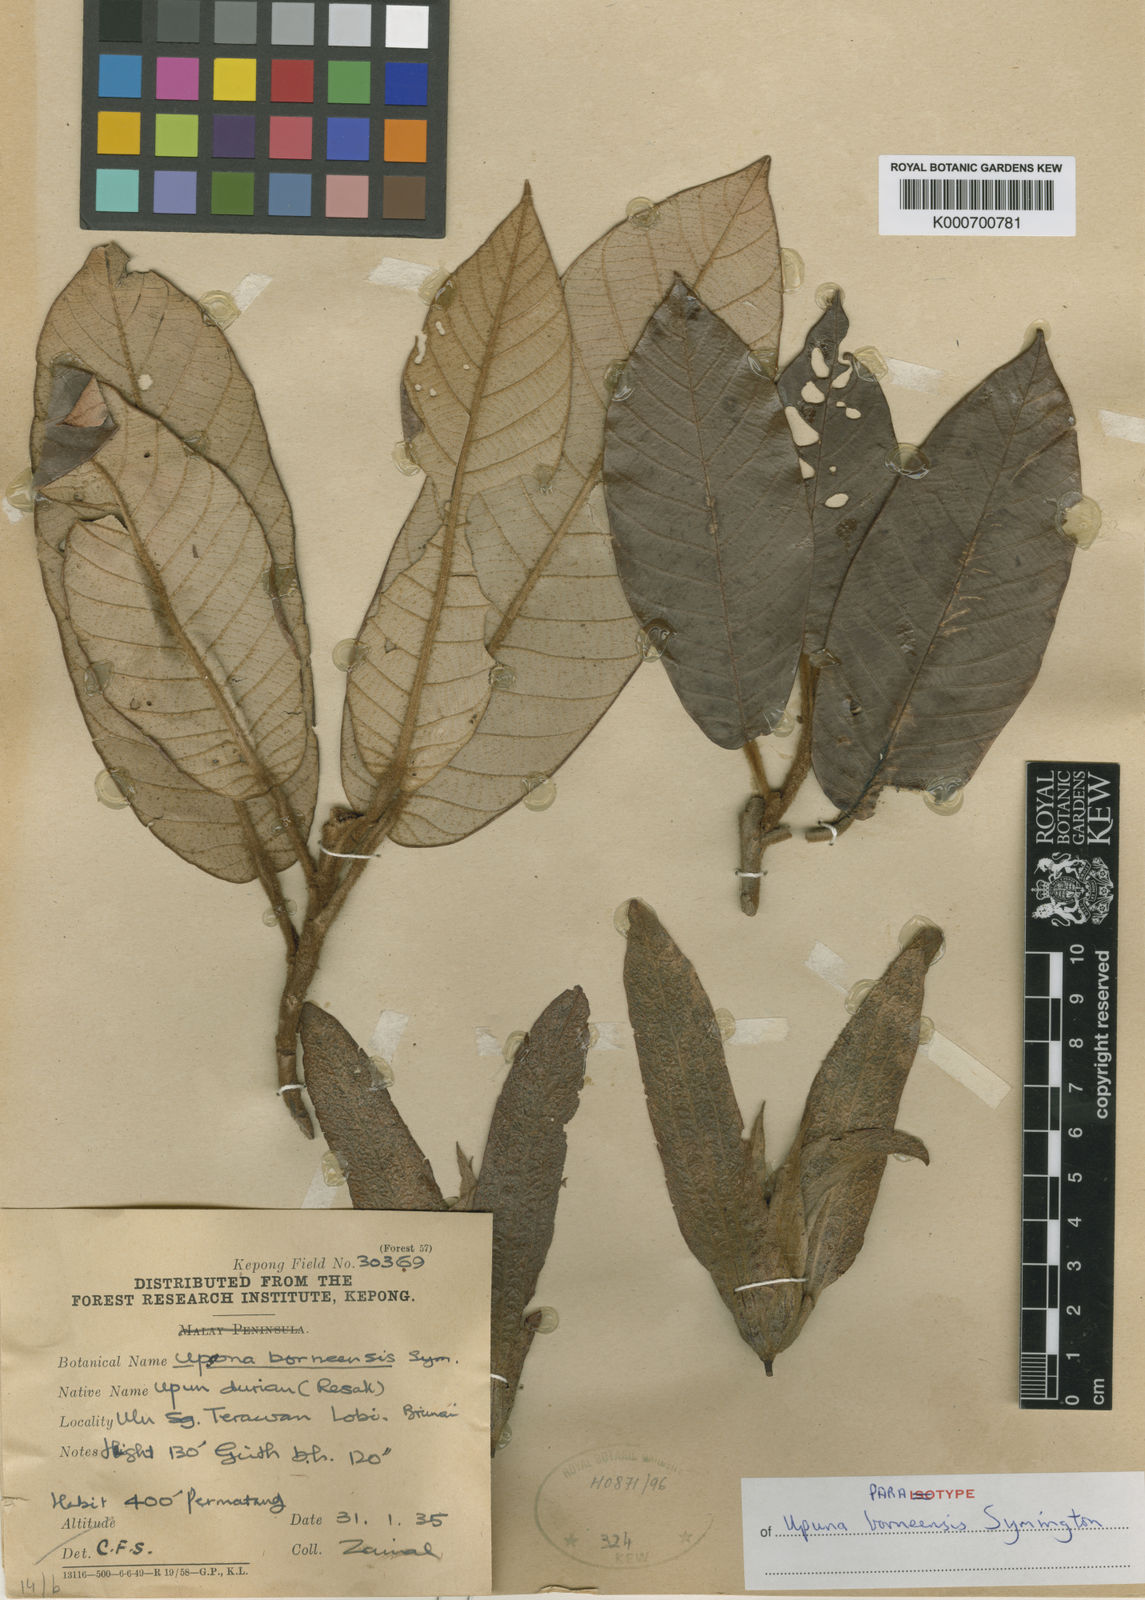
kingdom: Plantae
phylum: Tracheophyta
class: Magnoliopsida
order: Malvales
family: Dipterocarpaceae
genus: Upuna
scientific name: Upuna borneensis
